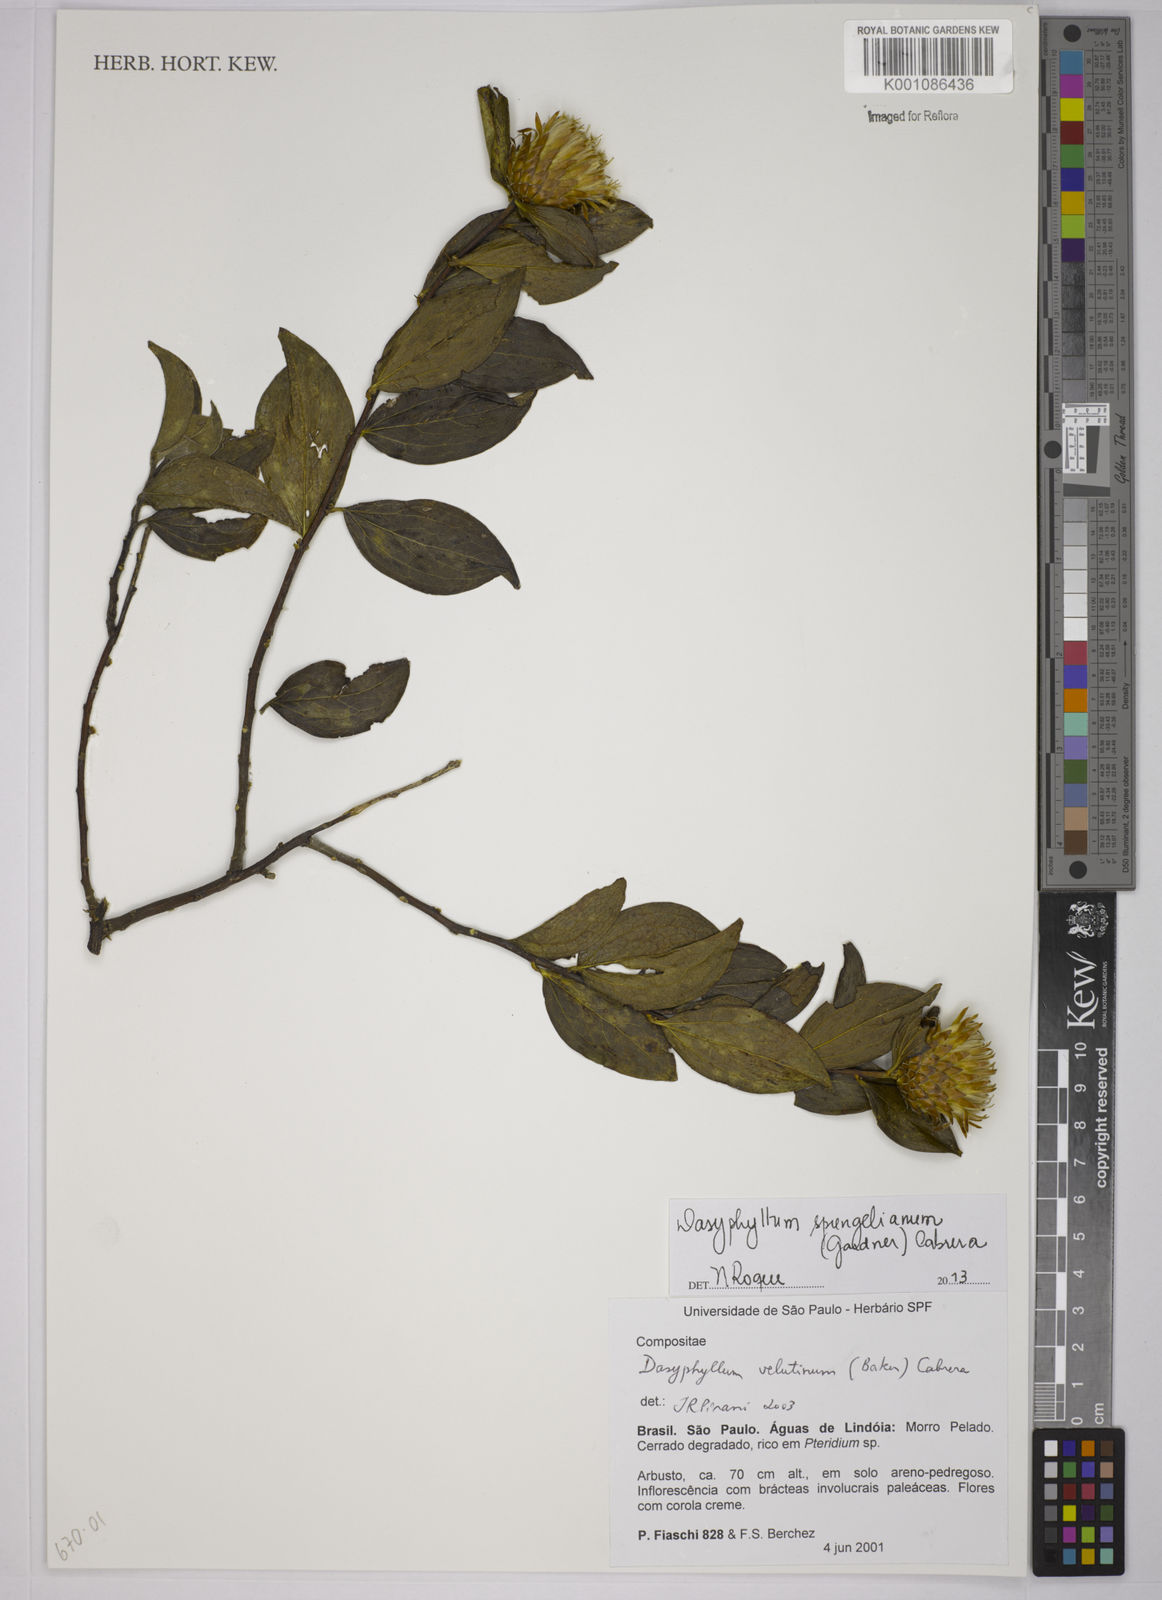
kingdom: Plantae
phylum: Tracheophyta
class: Magnoliopsida
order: Asterales
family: Asteraceae
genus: Dasyphyllum
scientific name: Dasyphyllum velutinum
